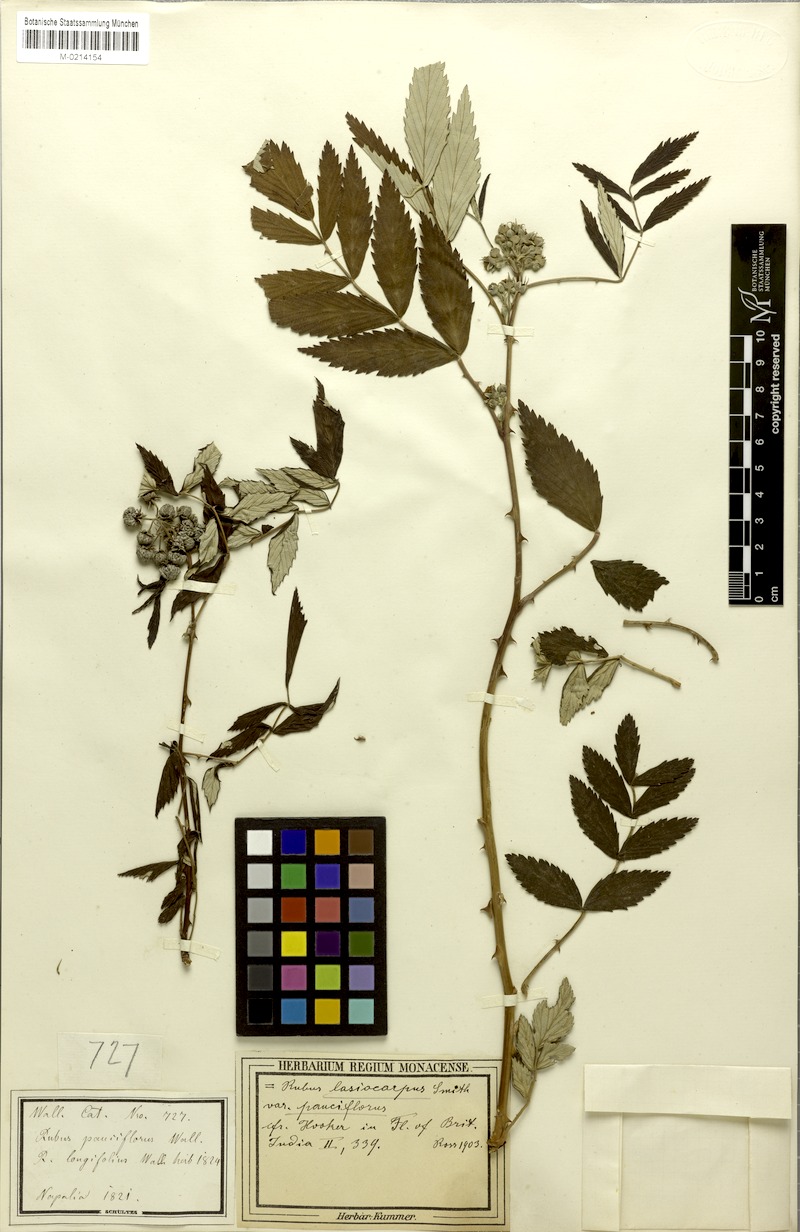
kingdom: Plantae
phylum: Tracheophyta
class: Magnoliopsida
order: Rosales
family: Rosaceae
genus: Rubus
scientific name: Rubus niveus
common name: Snowpeaks raspberry
